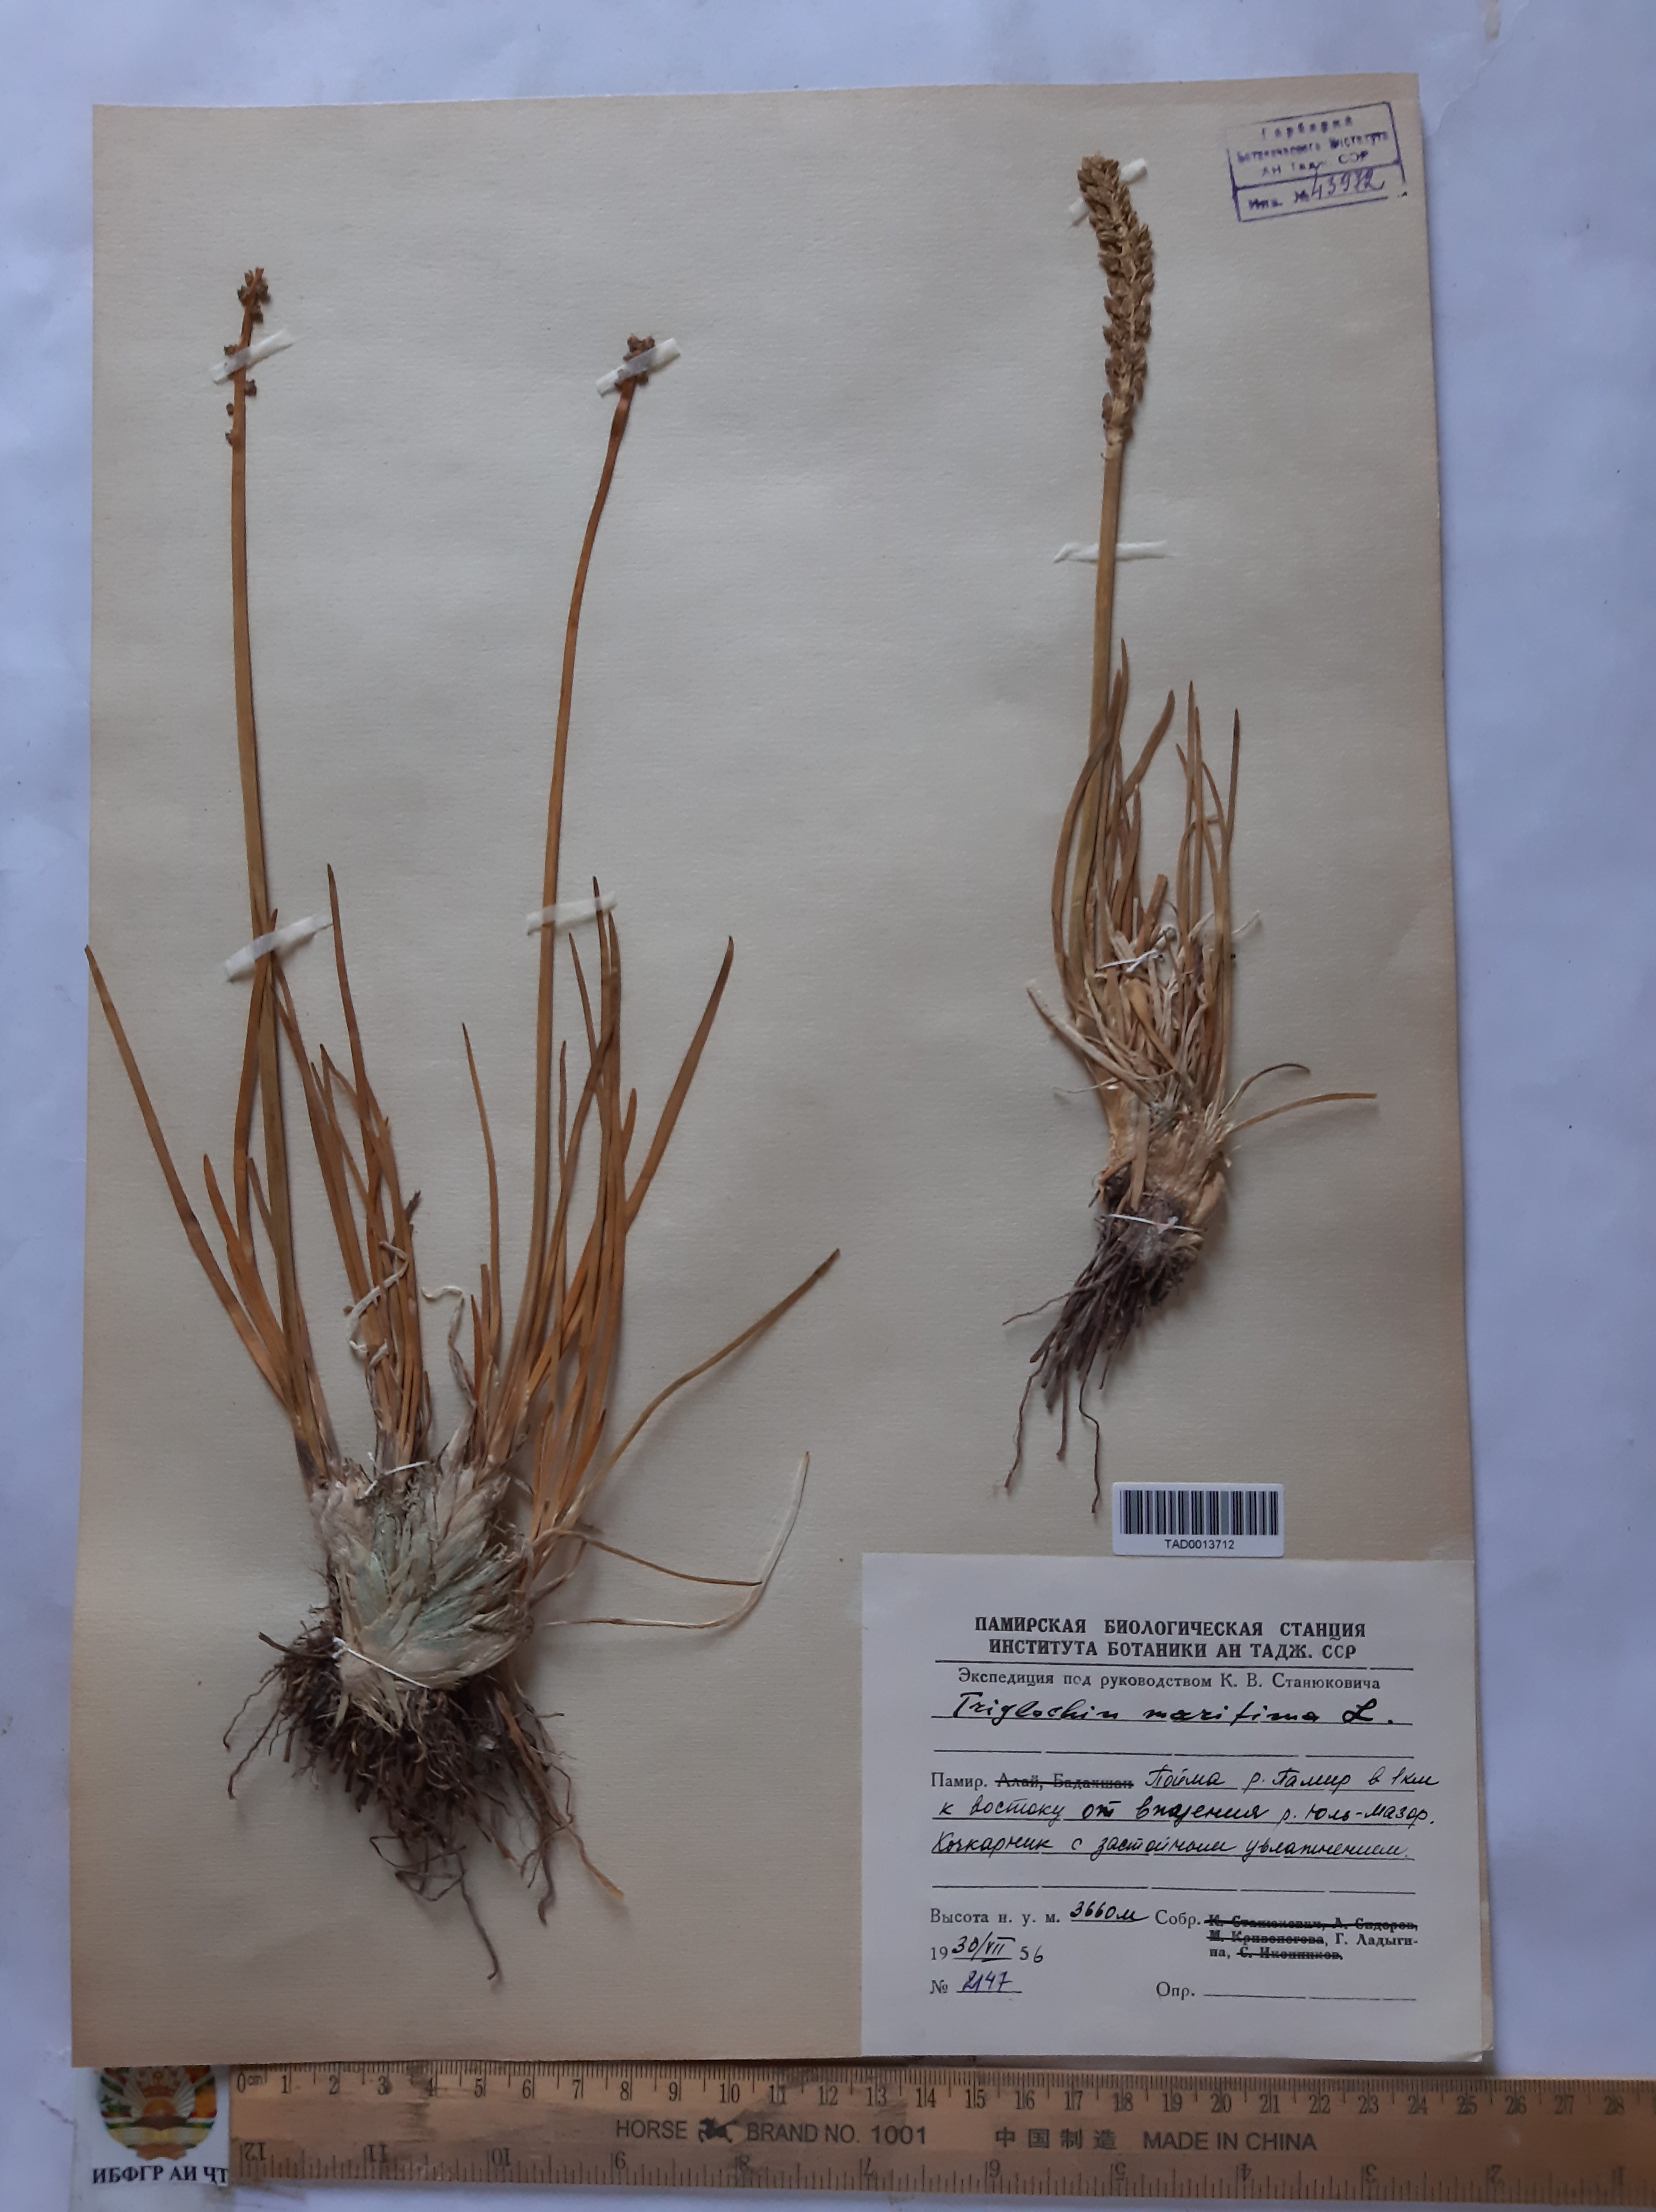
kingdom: Plantae
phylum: Tracheophyta
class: Liliopsida
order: Alismatales
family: Juncaginaceae
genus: Triglochin
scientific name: Triglochin maritima
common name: Sea arrowgrass
